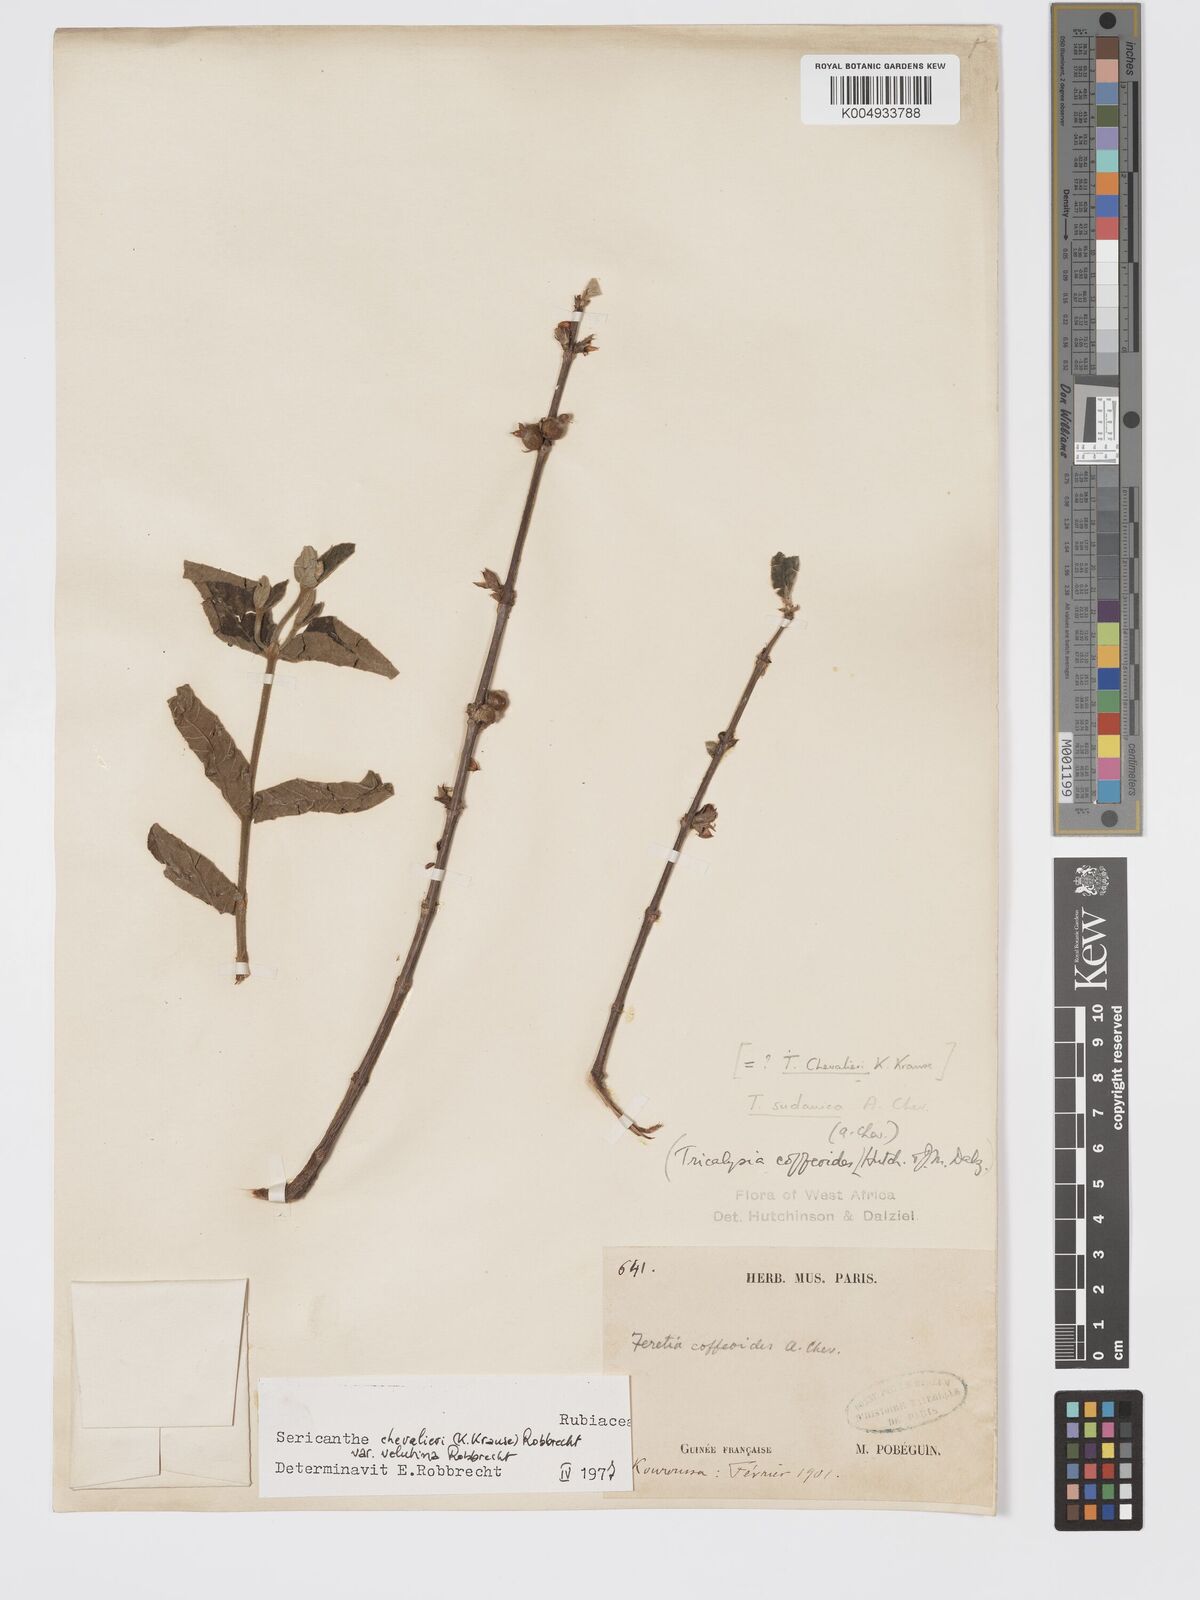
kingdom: Plantae
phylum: Tracheophyta
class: Magnoliopsida
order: Gentianales
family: Rubiaceae
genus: Sericanthe
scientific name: Sericanthe chevalieri
